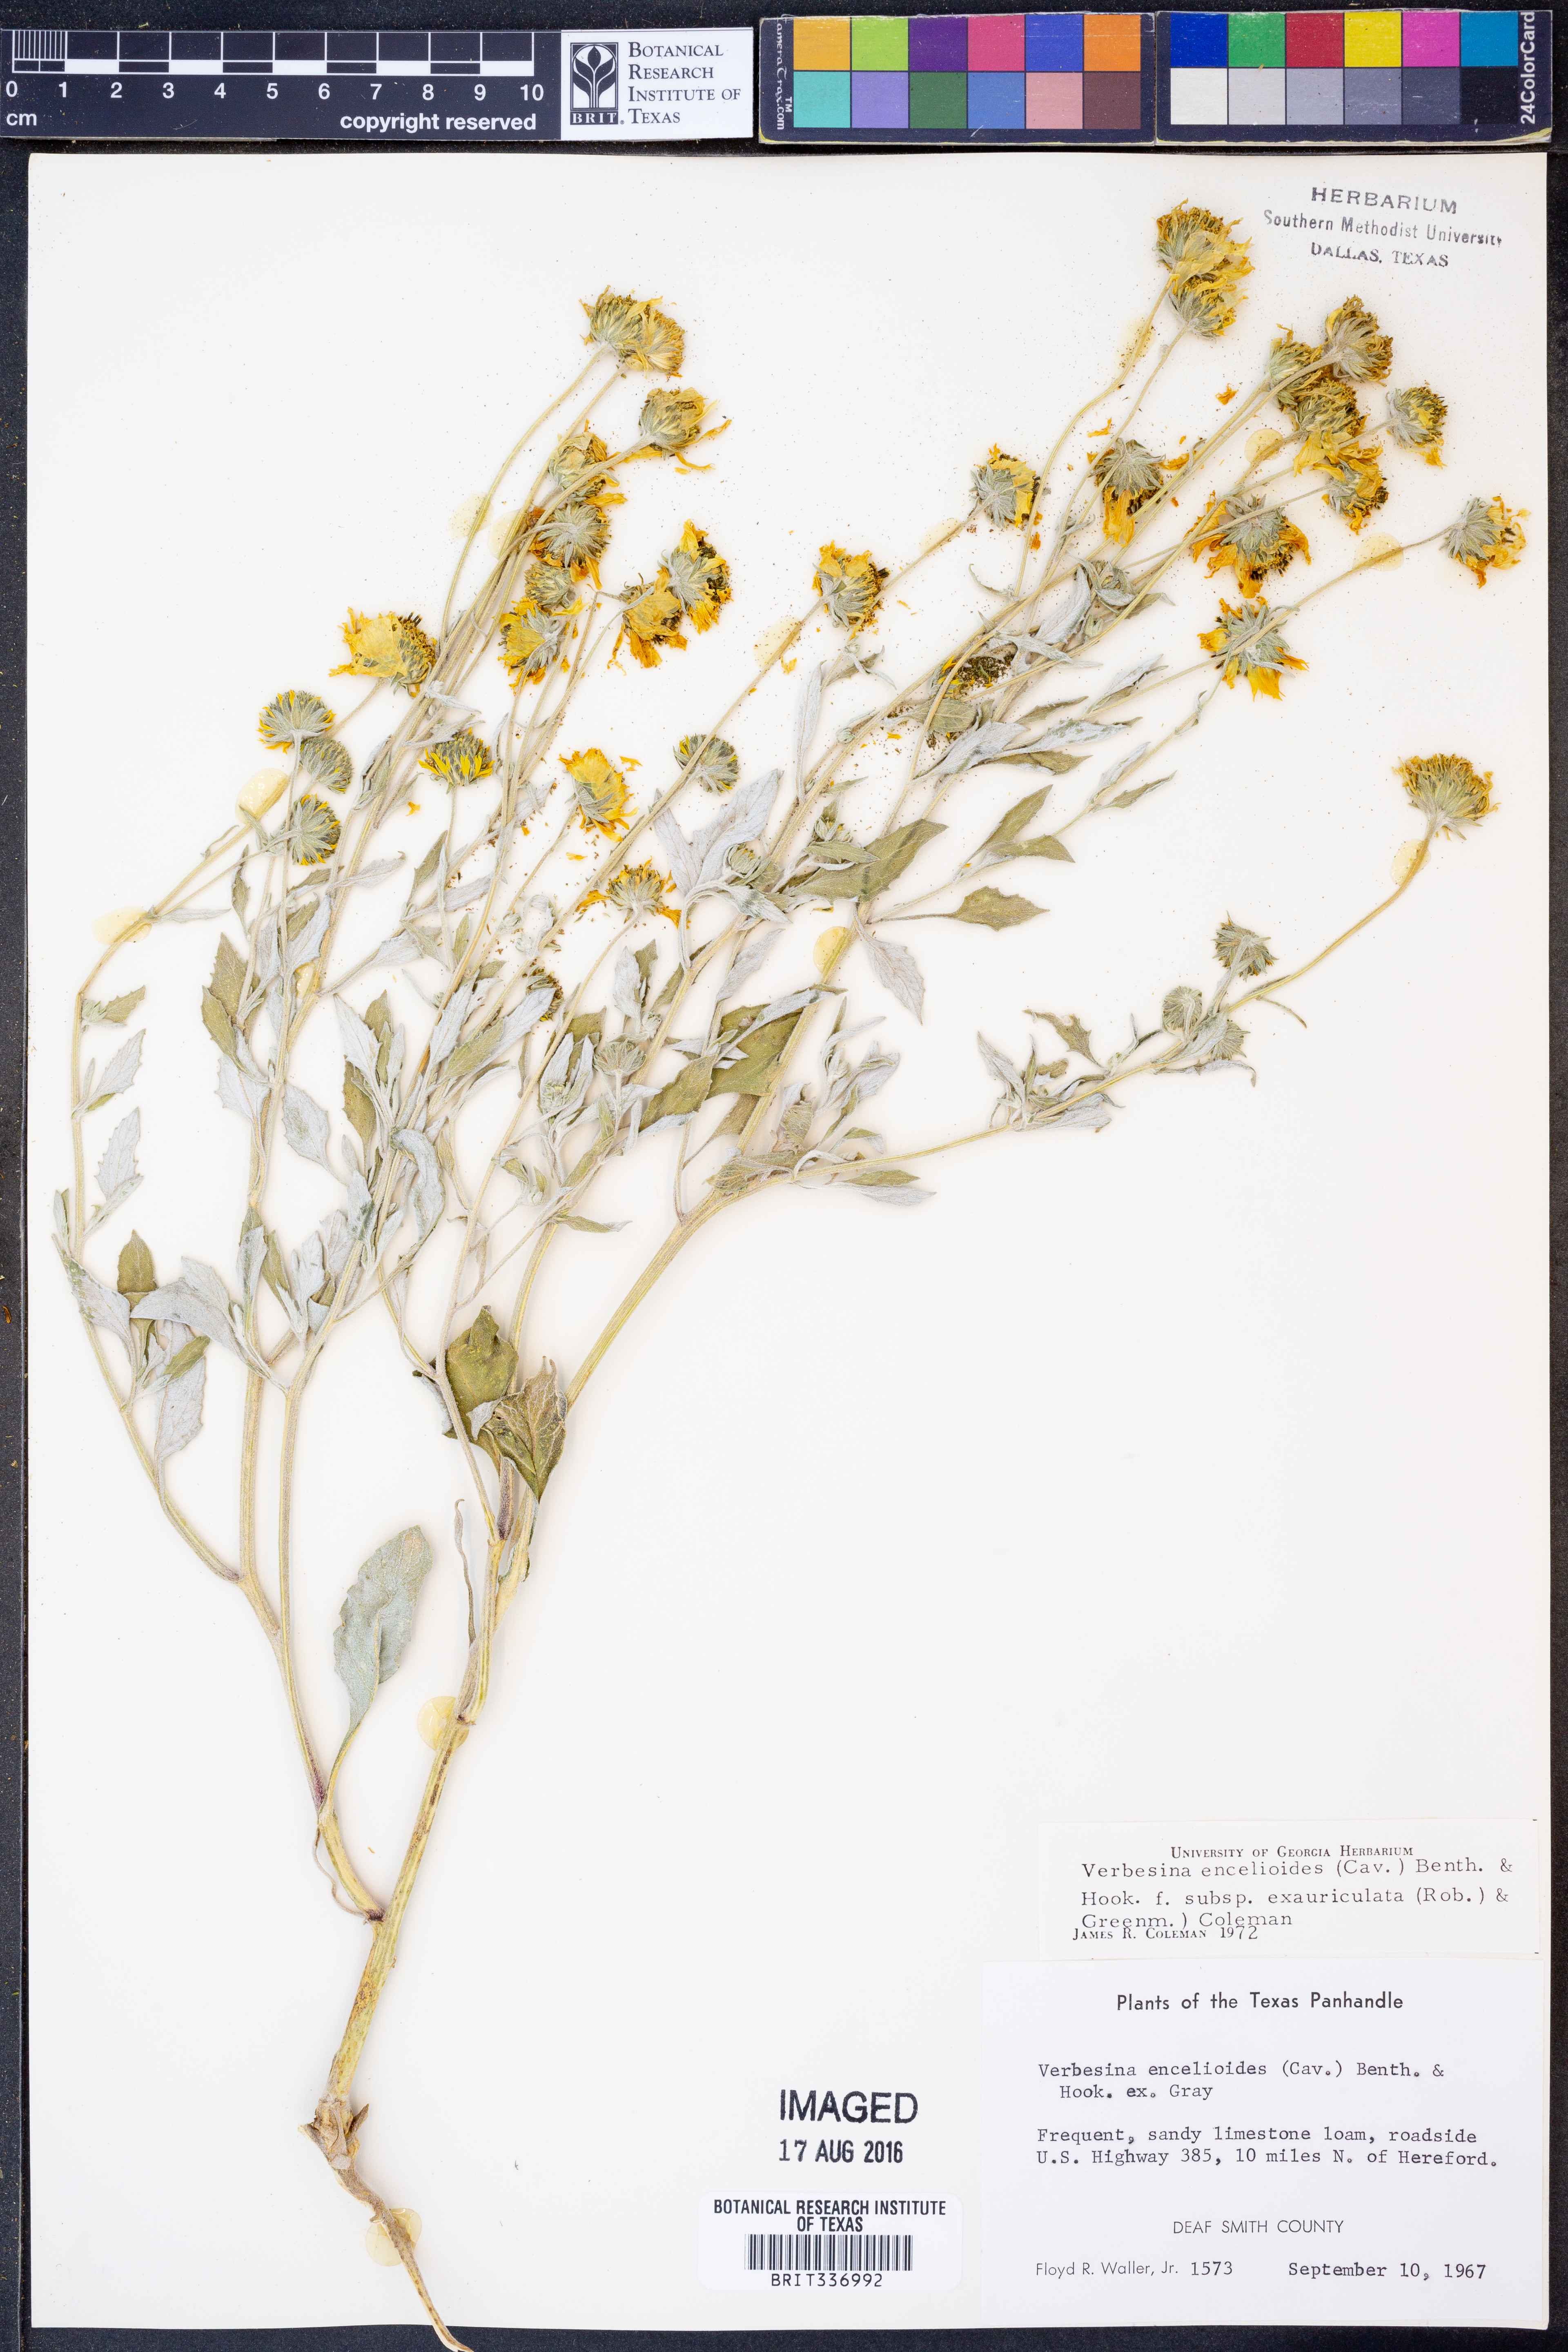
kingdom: Plantae
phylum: Tracheophyta
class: Magnoliopsida
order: Asterales
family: Asteraceae
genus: Verbesina
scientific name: Verbesina encelioides
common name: Golden crownbeard
